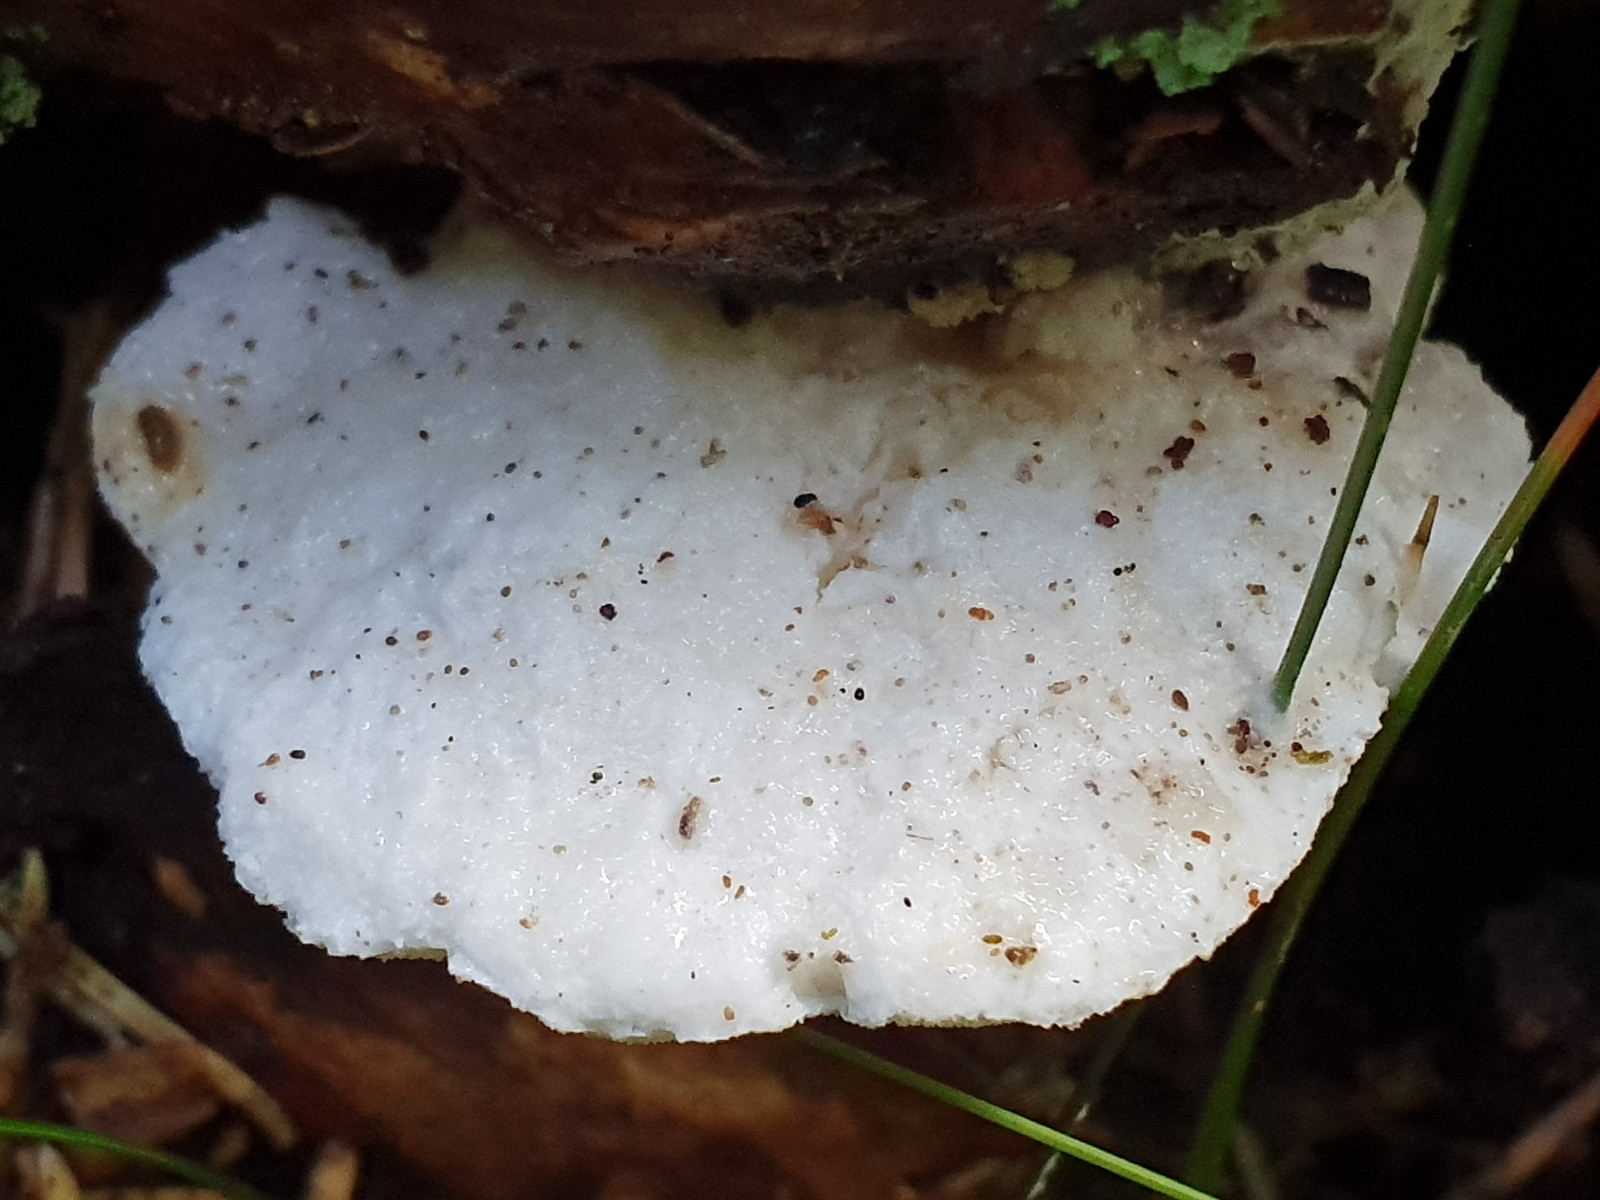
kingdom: Fungi
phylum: Basidiomycota
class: Agaricomycetes
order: Polyporales
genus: Amaropostia
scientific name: Amaropostia stiptica
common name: bitter kødporesvamp
